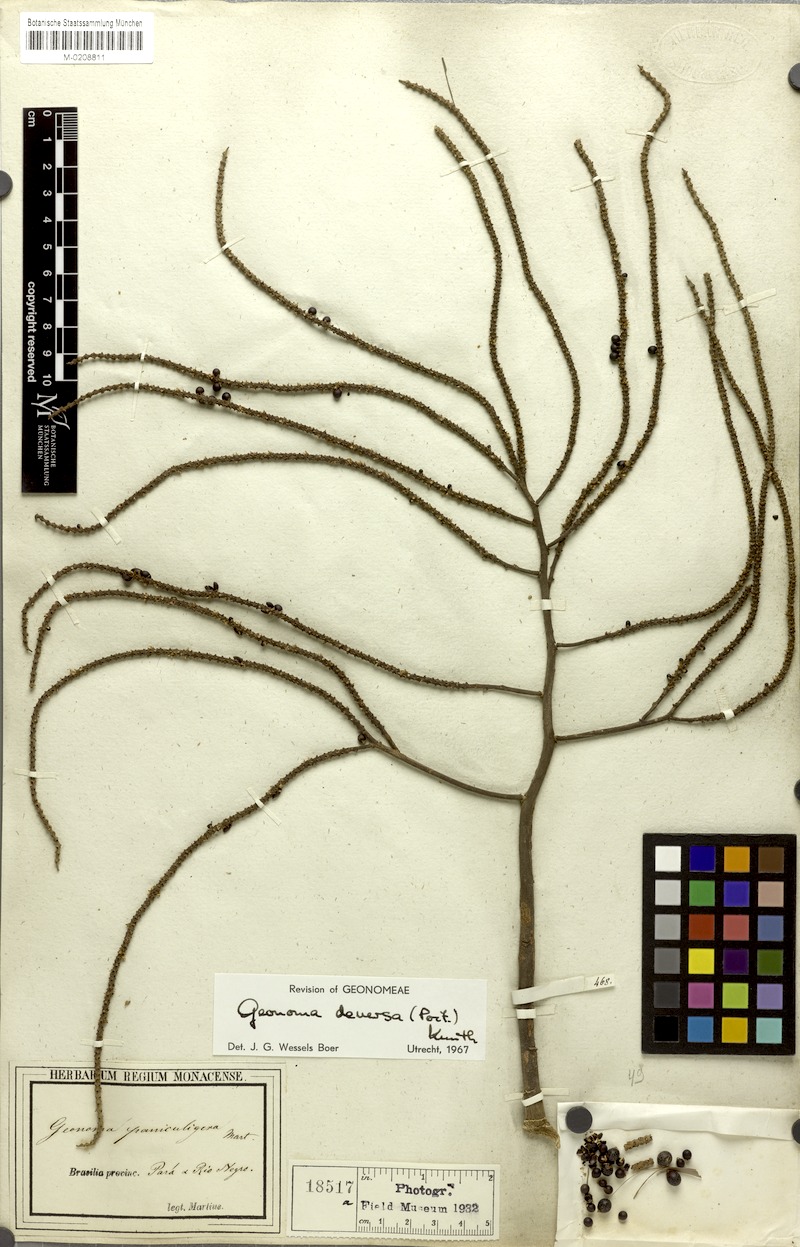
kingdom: Plantae
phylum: Tracheophyta
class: Liliopsida
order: Arecales
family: Arecaceae
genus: Geonoma
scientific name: Geonoma deversa
